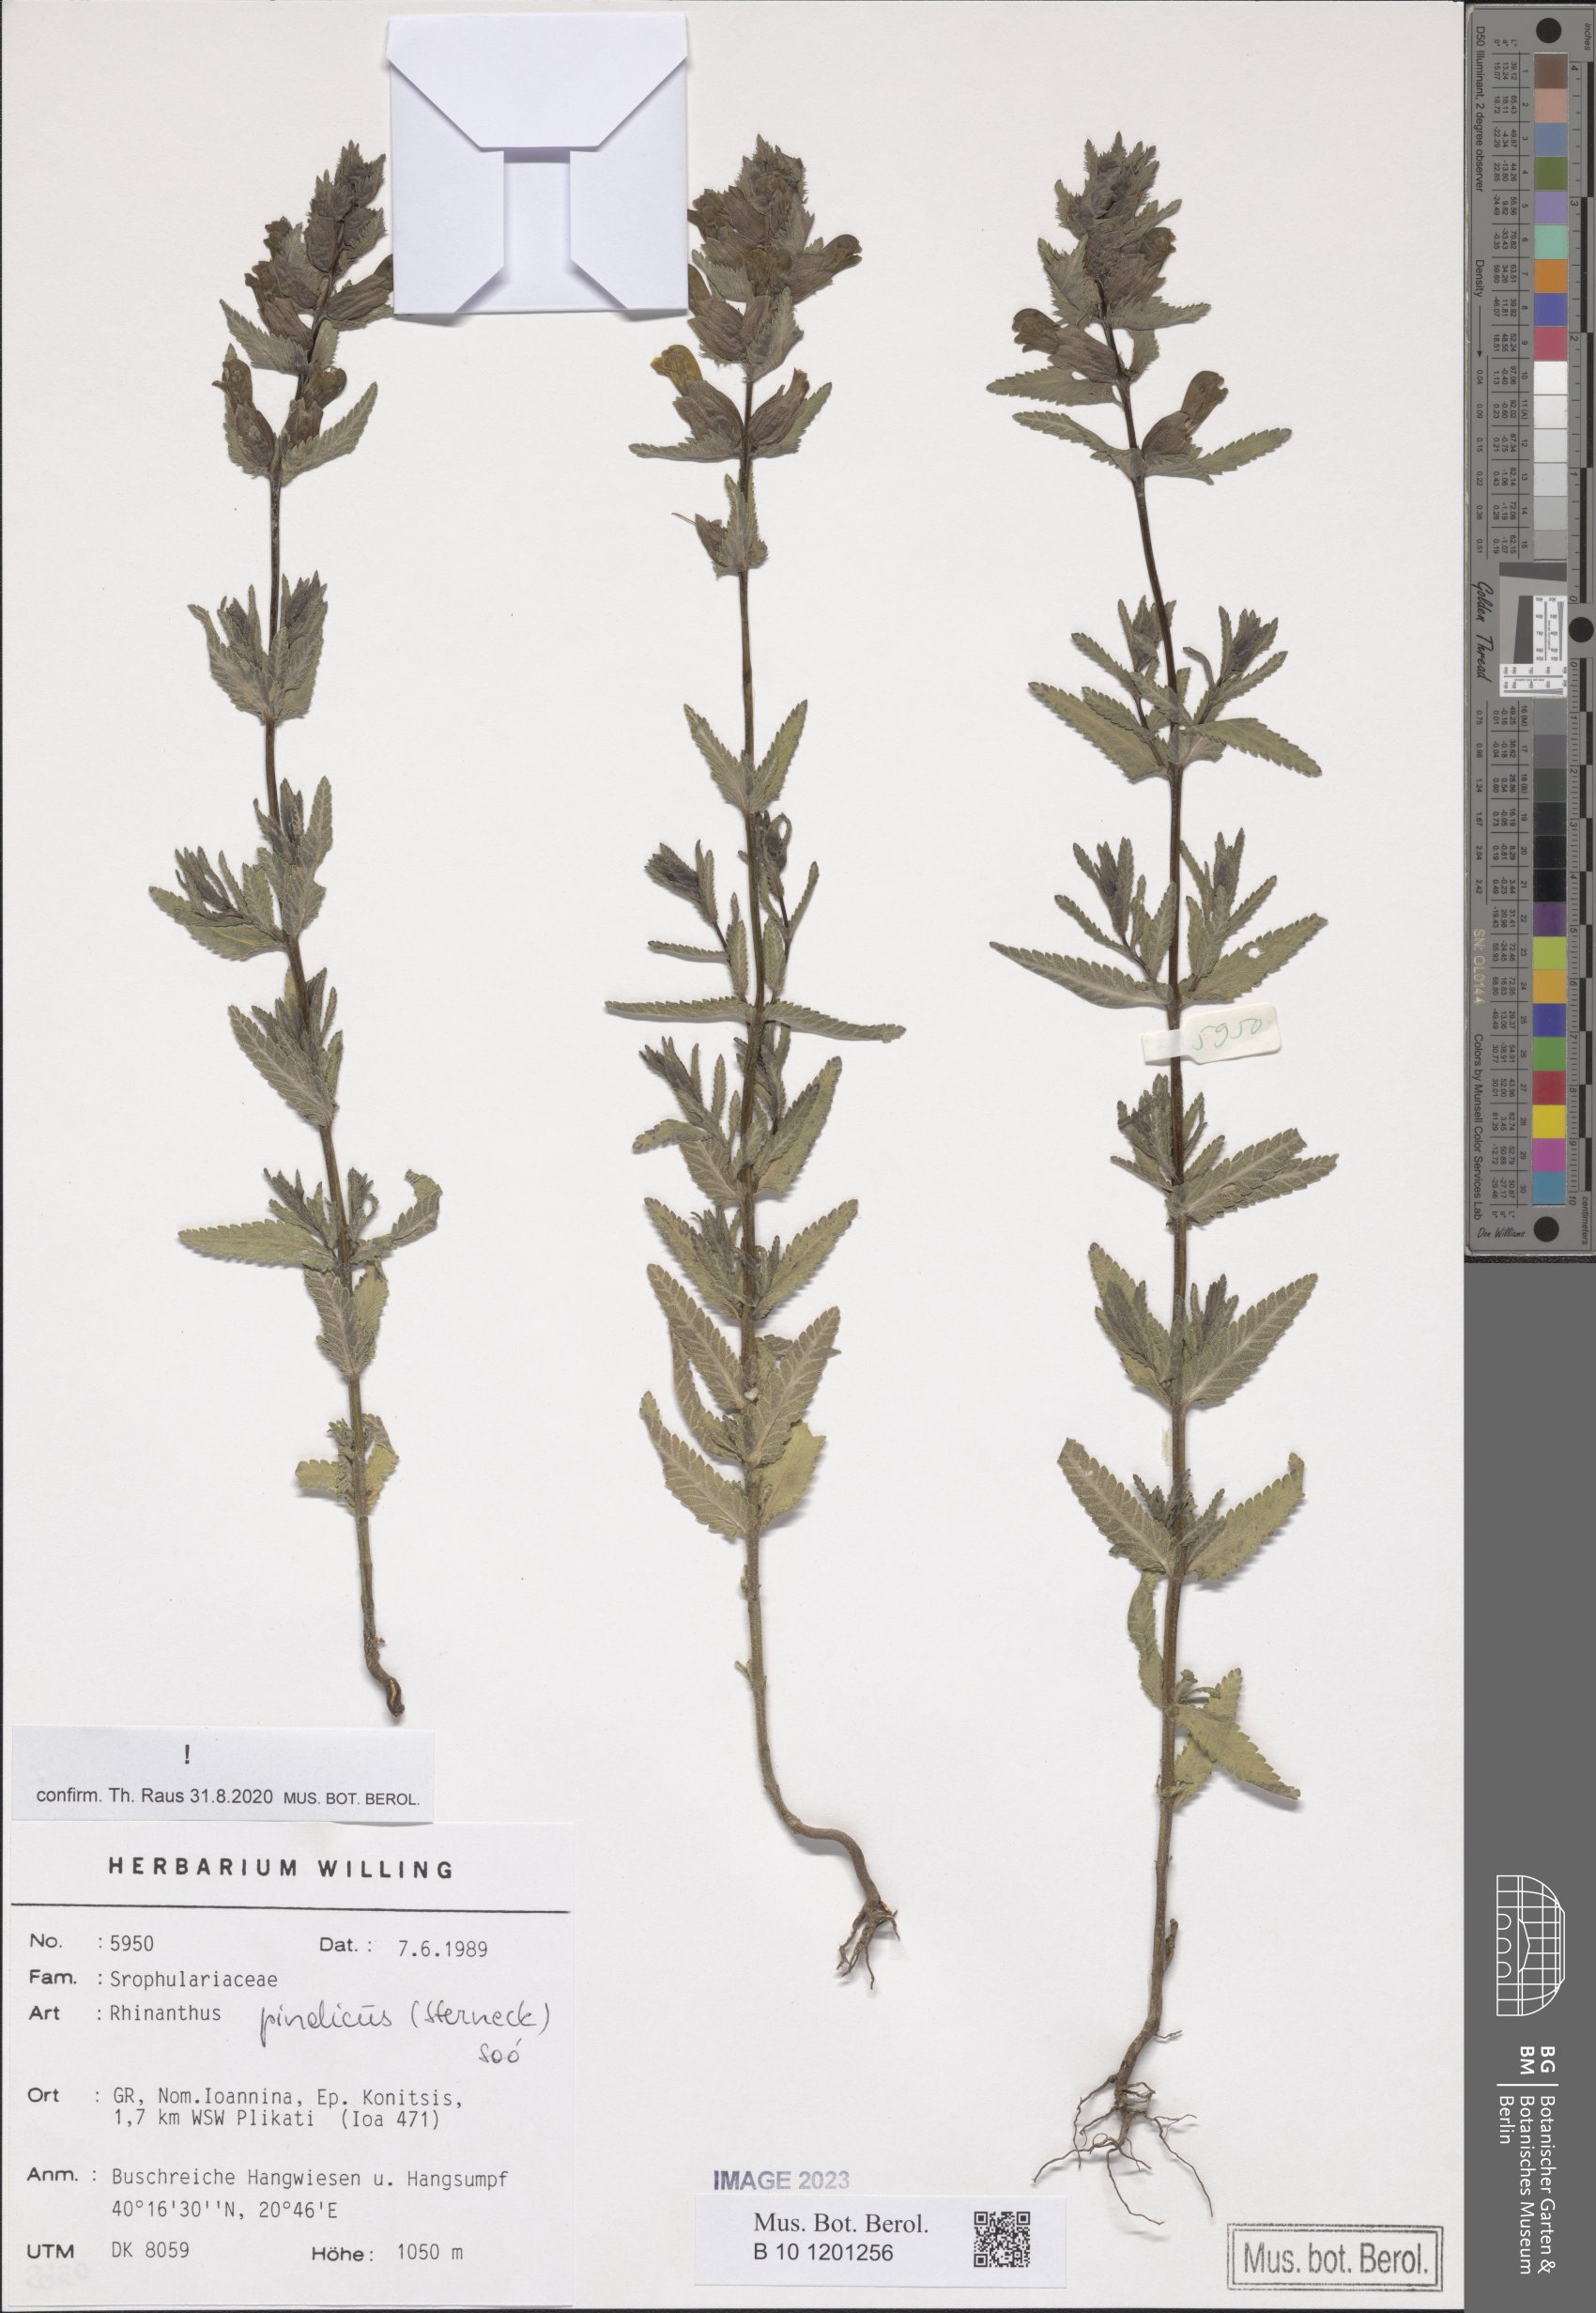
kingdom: Plantae
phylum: Tracheophyta
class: Magnoliopsida
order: Lamiales
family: Orobanchaceae
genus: Rhinanthus
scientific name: Rhinanthus pindicus
